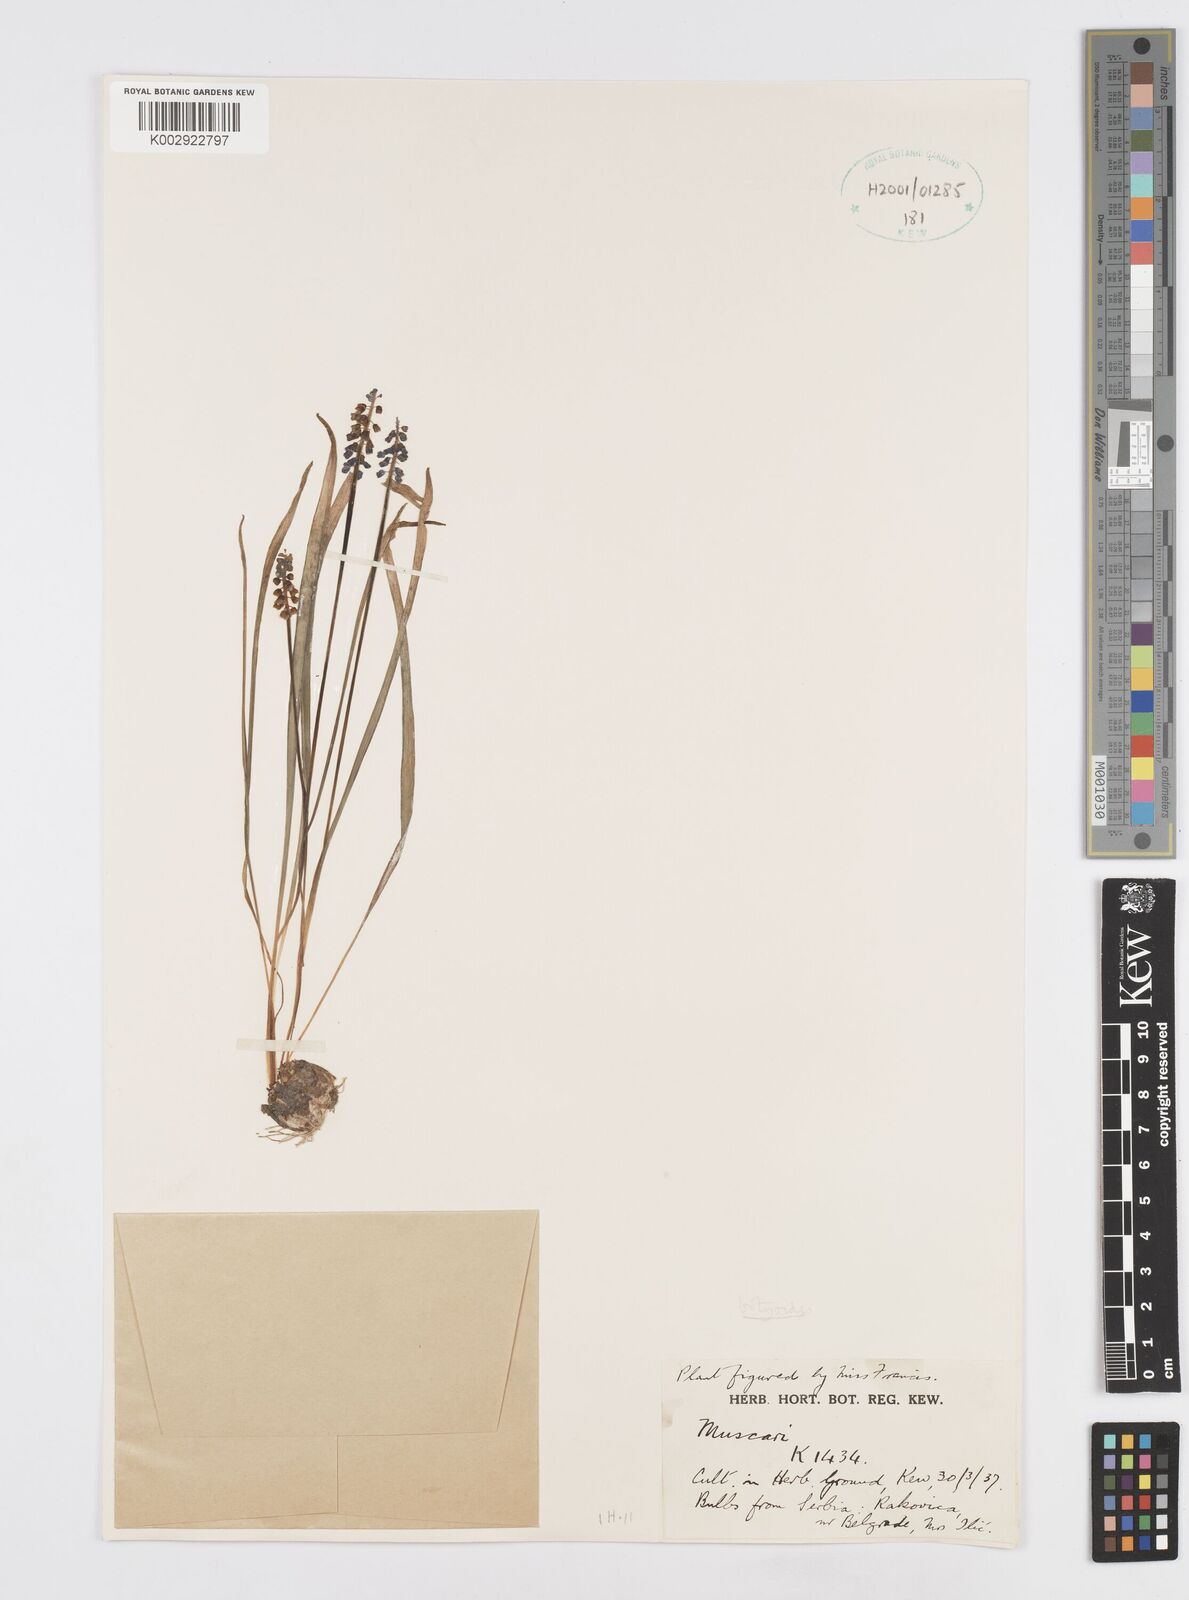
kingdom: Plantae
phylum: Tracheophyta
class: Liliopsida
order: Asparagales
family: Asparagaceae
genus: Muscari
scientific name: Muscari botryoides
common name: Compact grape-hyacinth
